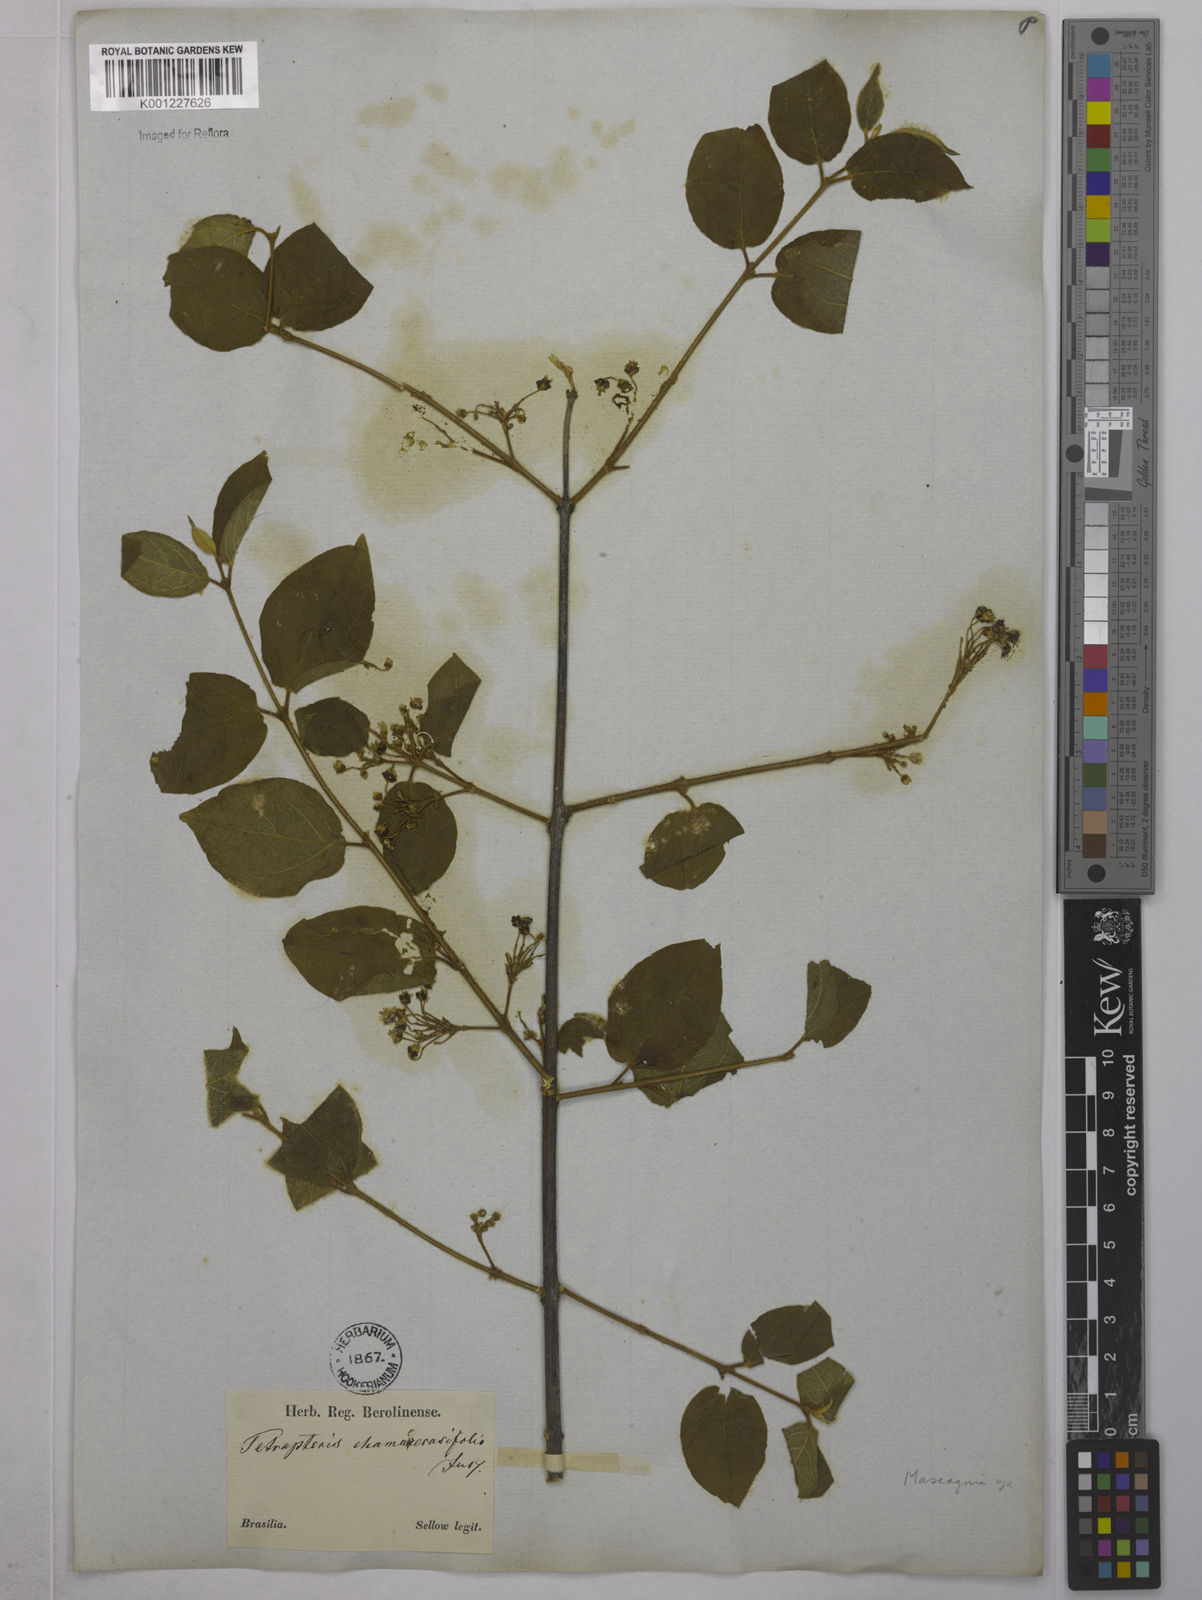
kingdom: Plantae
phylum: Tracheophyta
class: Magnoliopsida
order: Malpighiales
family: Malpighiaceae
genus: Mascagnia
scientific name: Mascagnia
